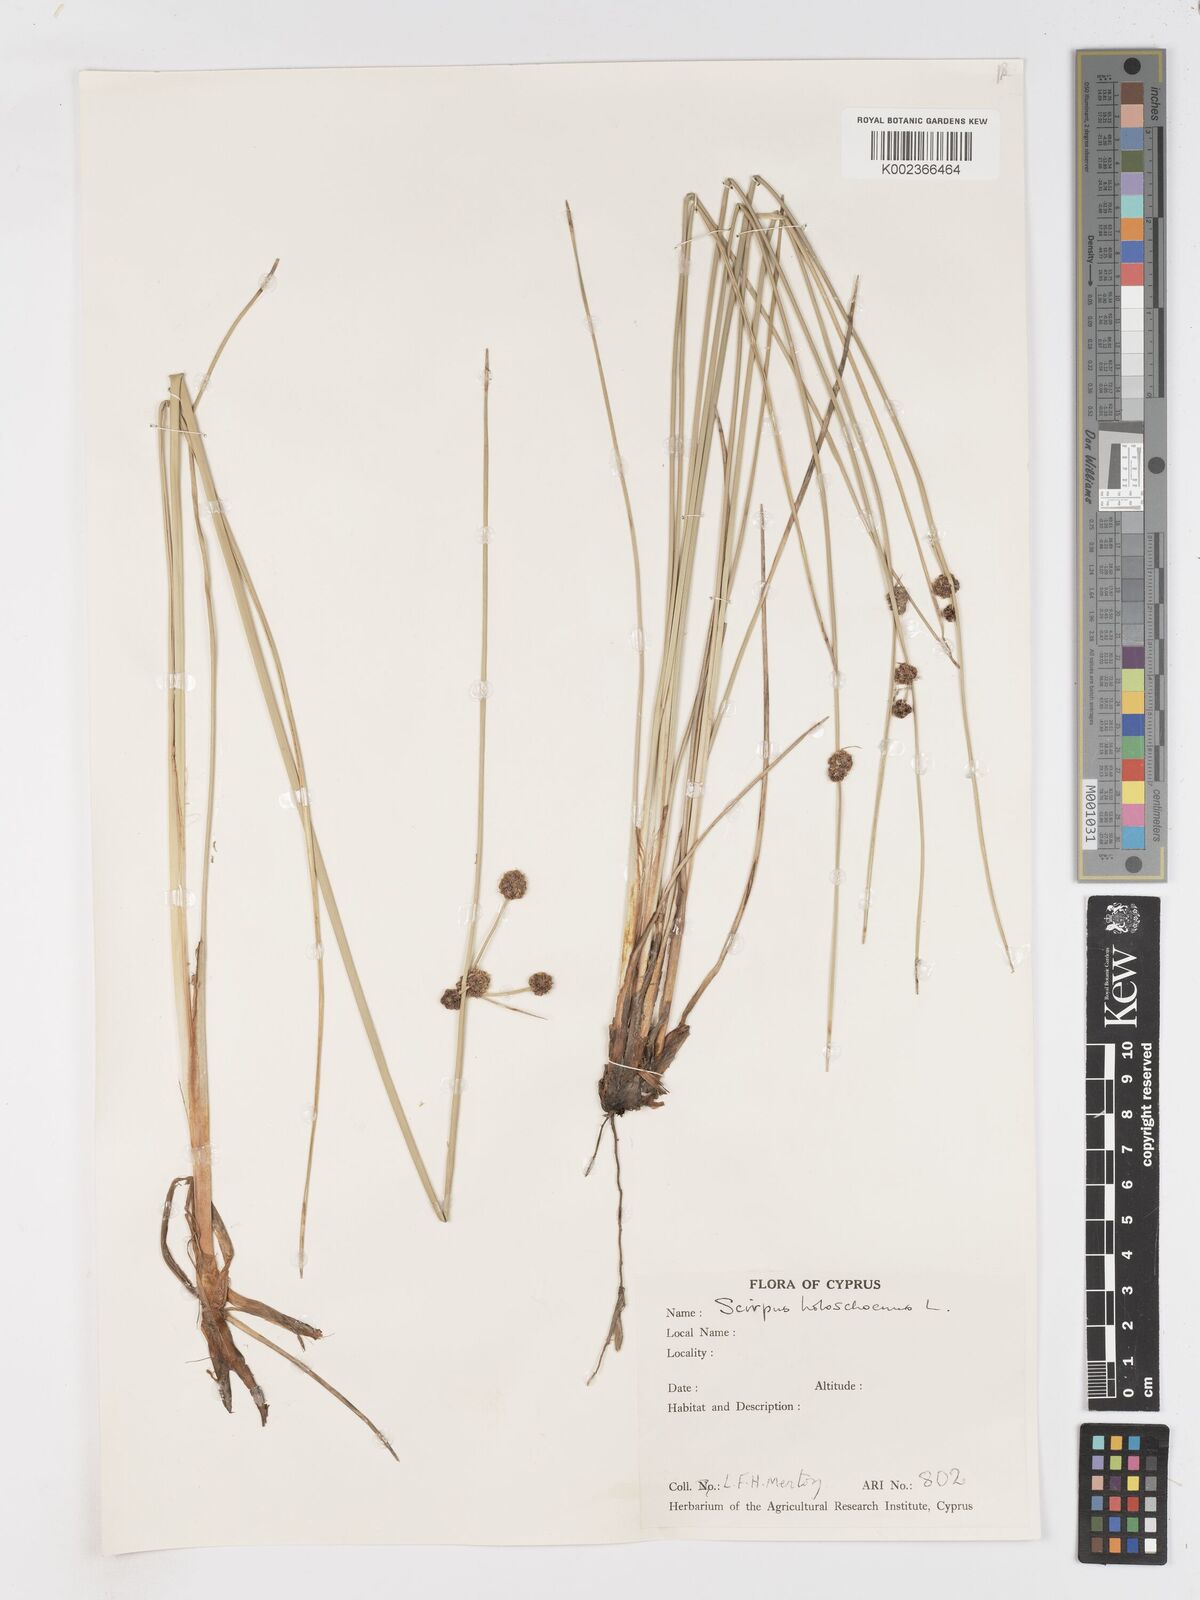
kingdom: Plantae
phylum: Tracheophyta
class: Liliopsida
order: Poales
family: Cyperaceae
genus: Scirpoides
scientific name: Scirpoides holoschoenus
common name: Round-headed club-rush
